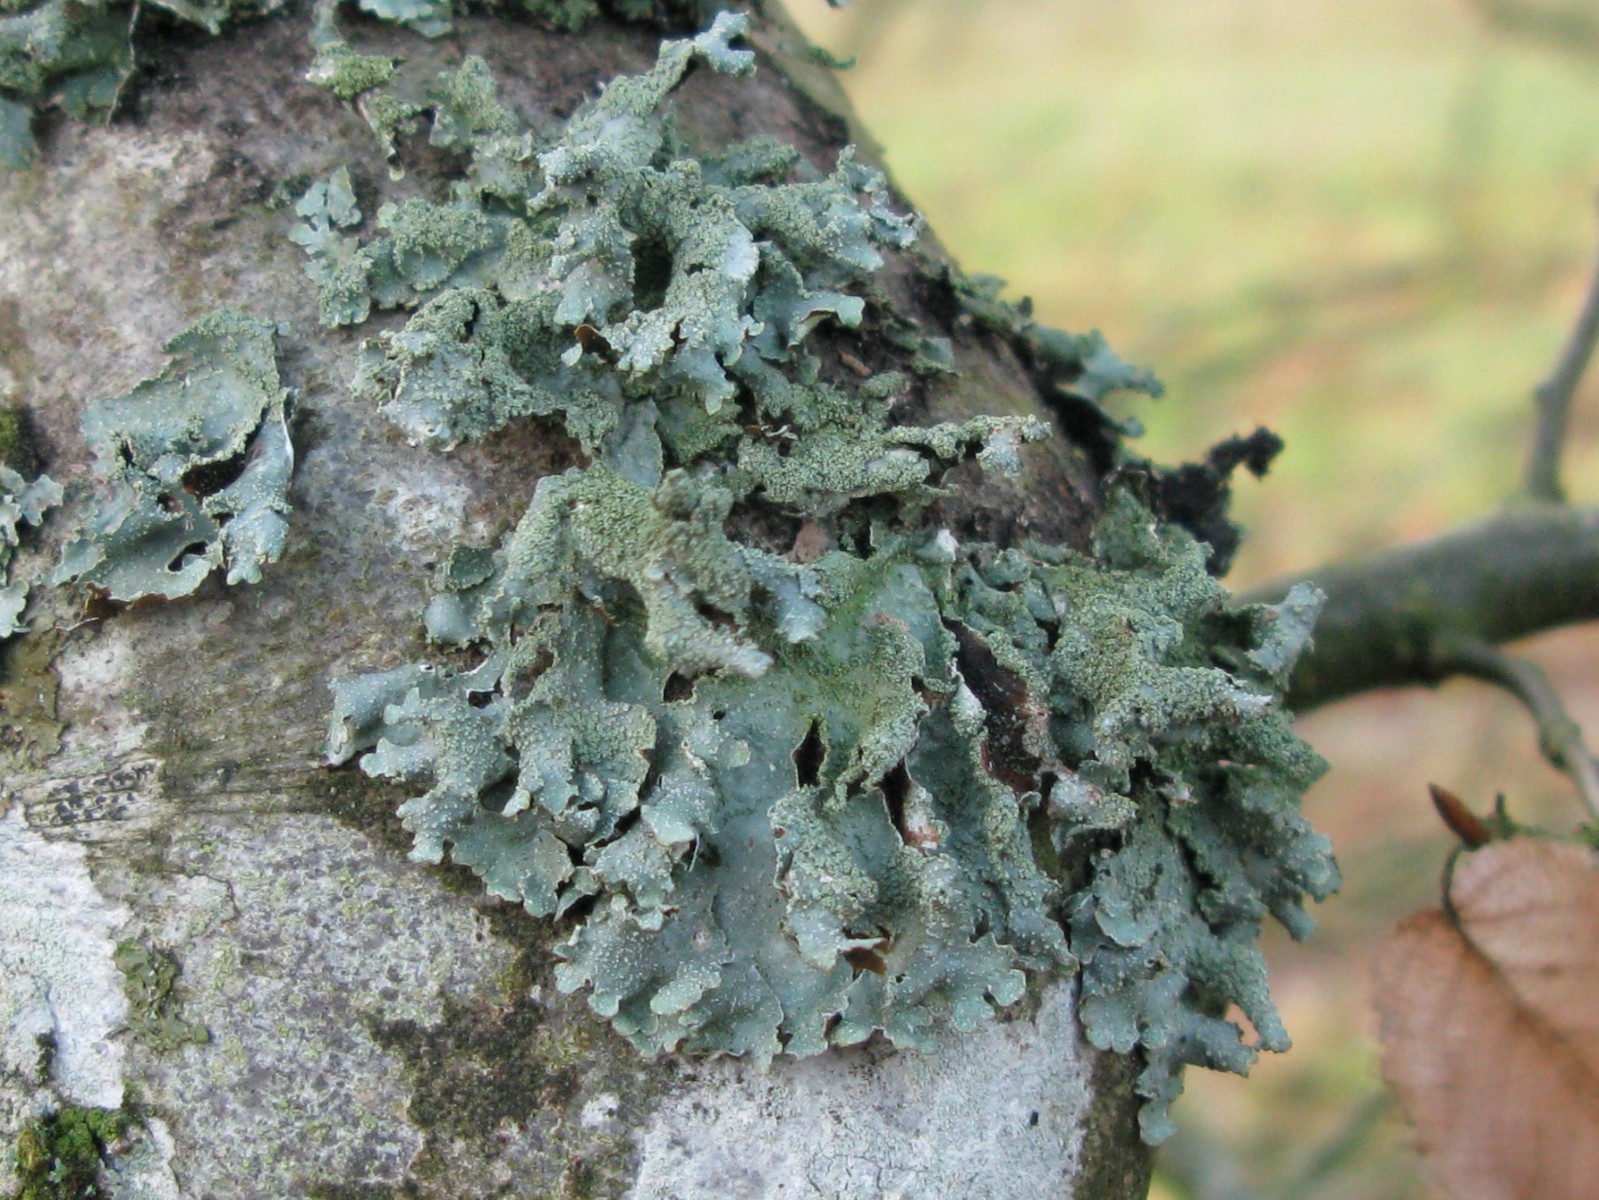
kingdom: Fungi
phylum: Ascomycota
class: Lecanoromycetes
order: Lecanorales
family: Parmeliaceae
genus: Parmelia
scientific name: Parmelia submontana
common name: langlobet skållav
